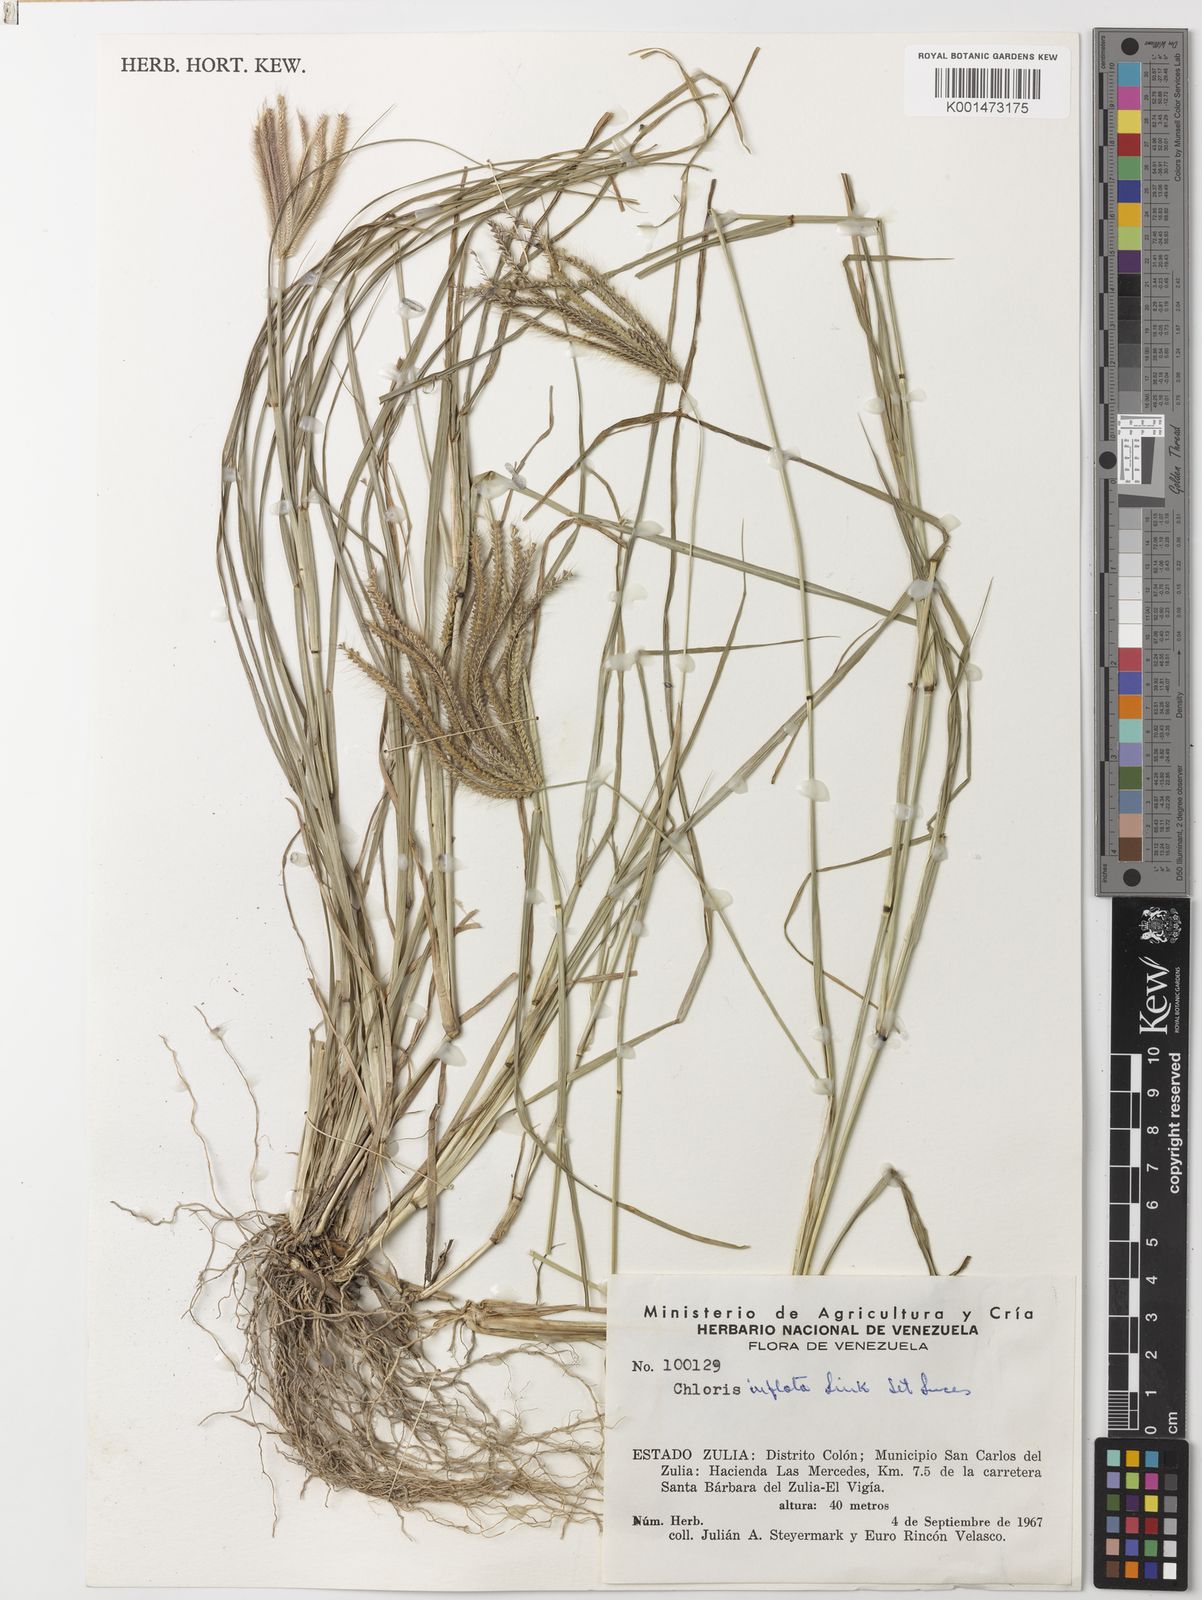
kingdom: Plantae
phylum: Tracheophyta
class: Liliopsida
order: Poales
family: Poaceae
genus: Chloris
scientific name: Chloris barbata
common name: Swollen fingergrass
